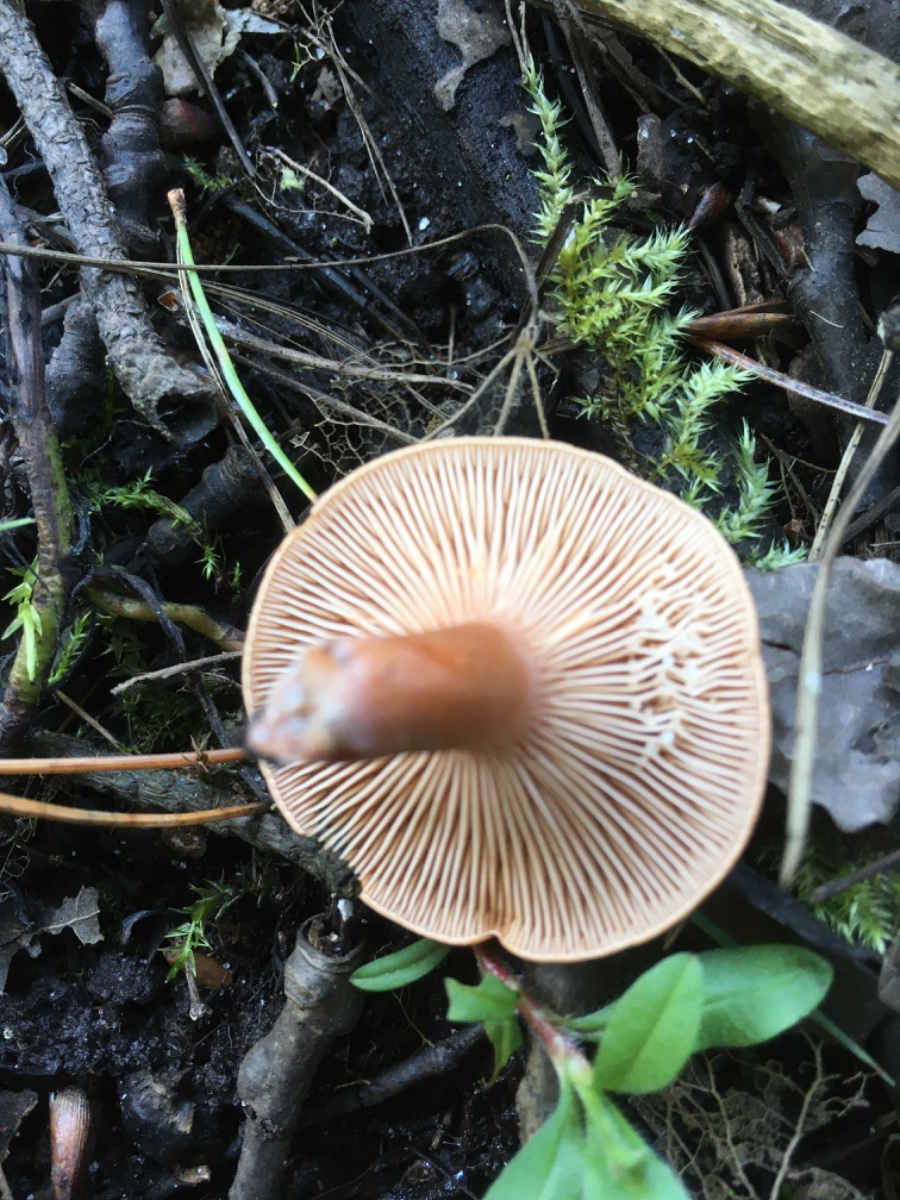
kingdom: Fungi
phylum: Basidiomycota
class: Agaricomycetes
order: Russulales
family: Russulaceae
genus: Lactarius
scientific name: Lactarius tabidus
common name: rynket mælkehat
